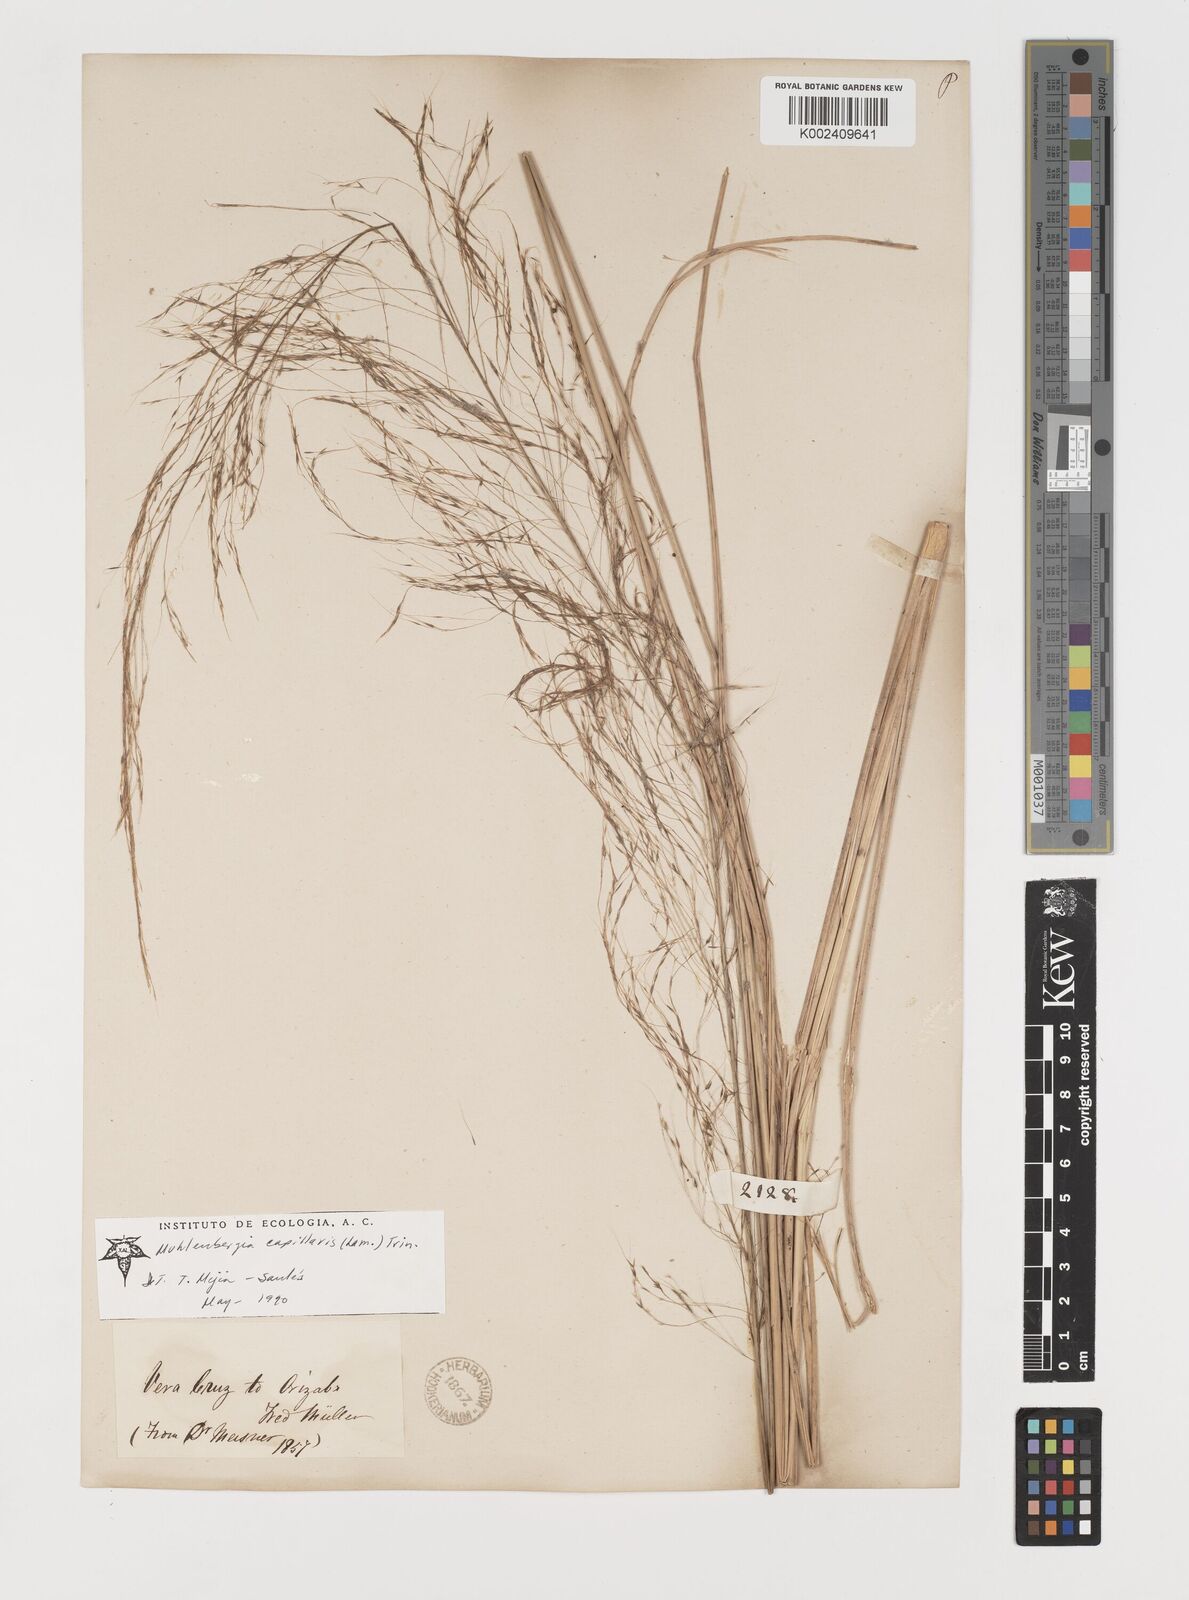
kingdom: Plantae
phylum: Tracheophyta
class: Liliopsida
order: Poales
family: Poaceae
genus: Muhlenbergia
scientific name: Muhlenbergia stricta
